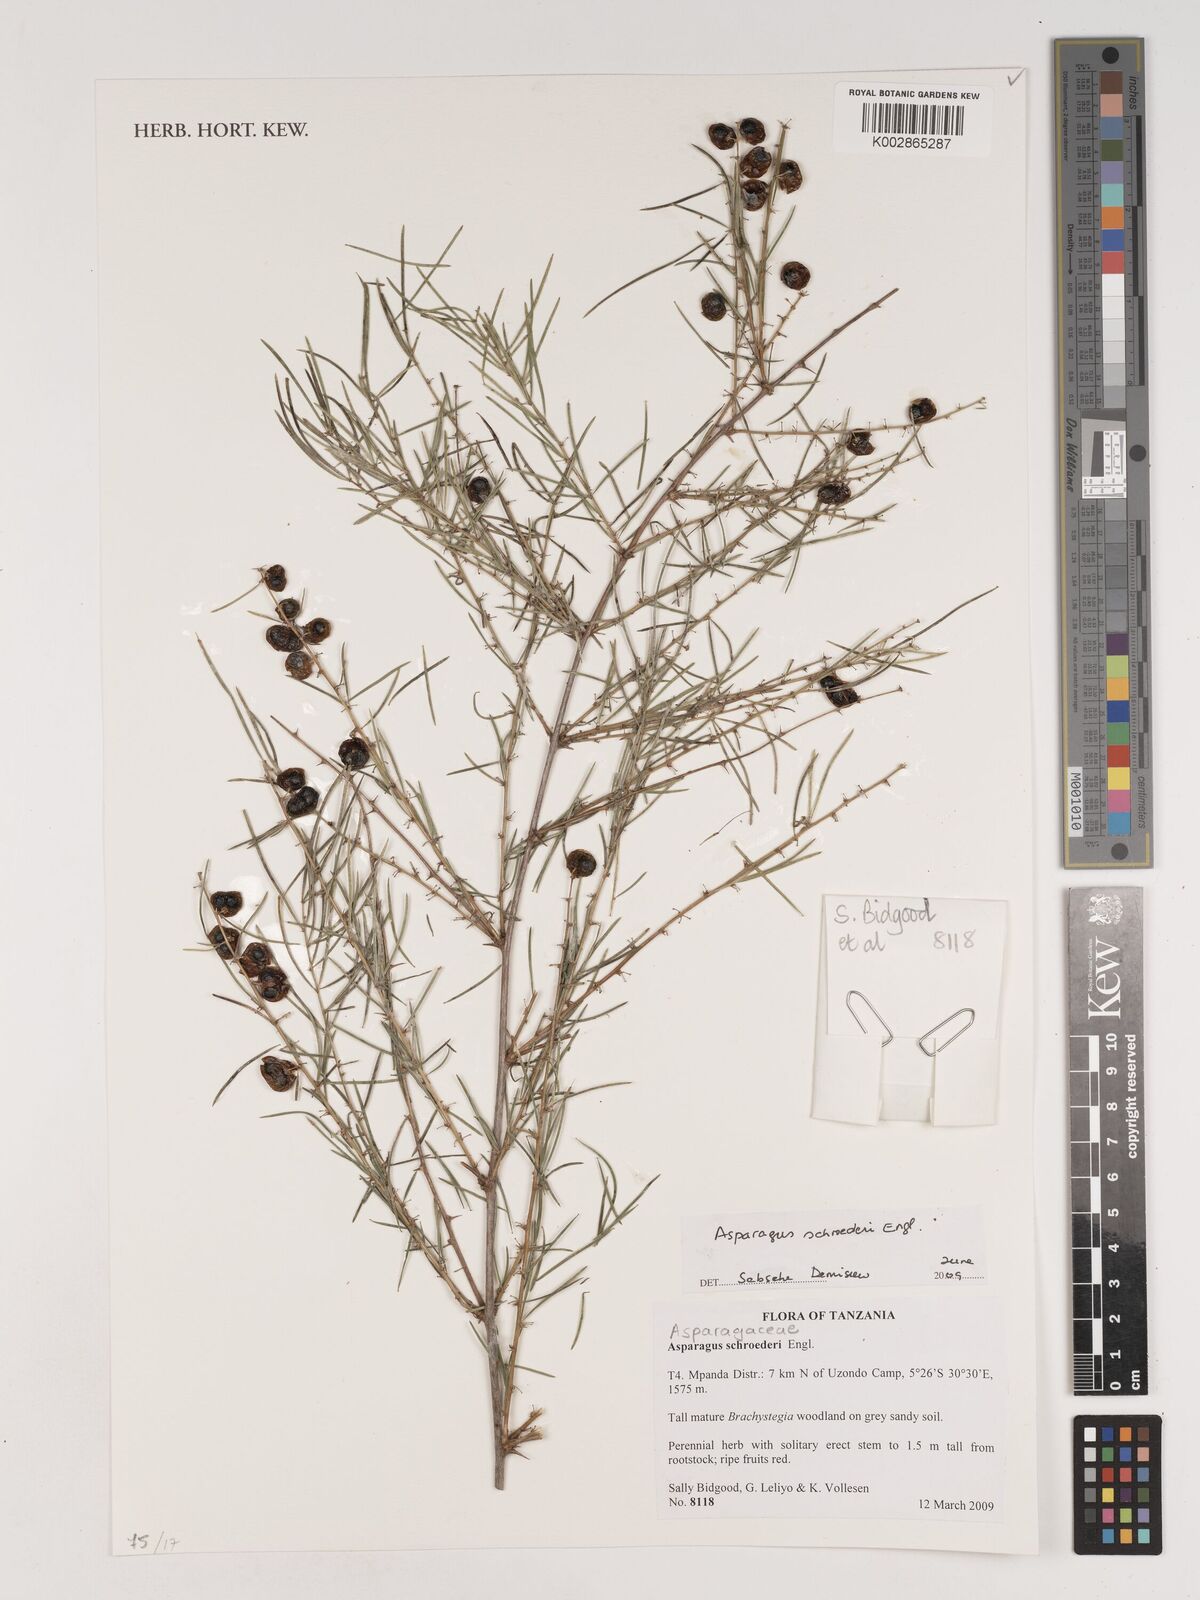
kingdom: Plantae
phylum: Tracheophyta
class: Liliopsida
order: Asparagales
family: Asparagaceae
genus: Asparagus
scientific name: Asparagus schroederi
